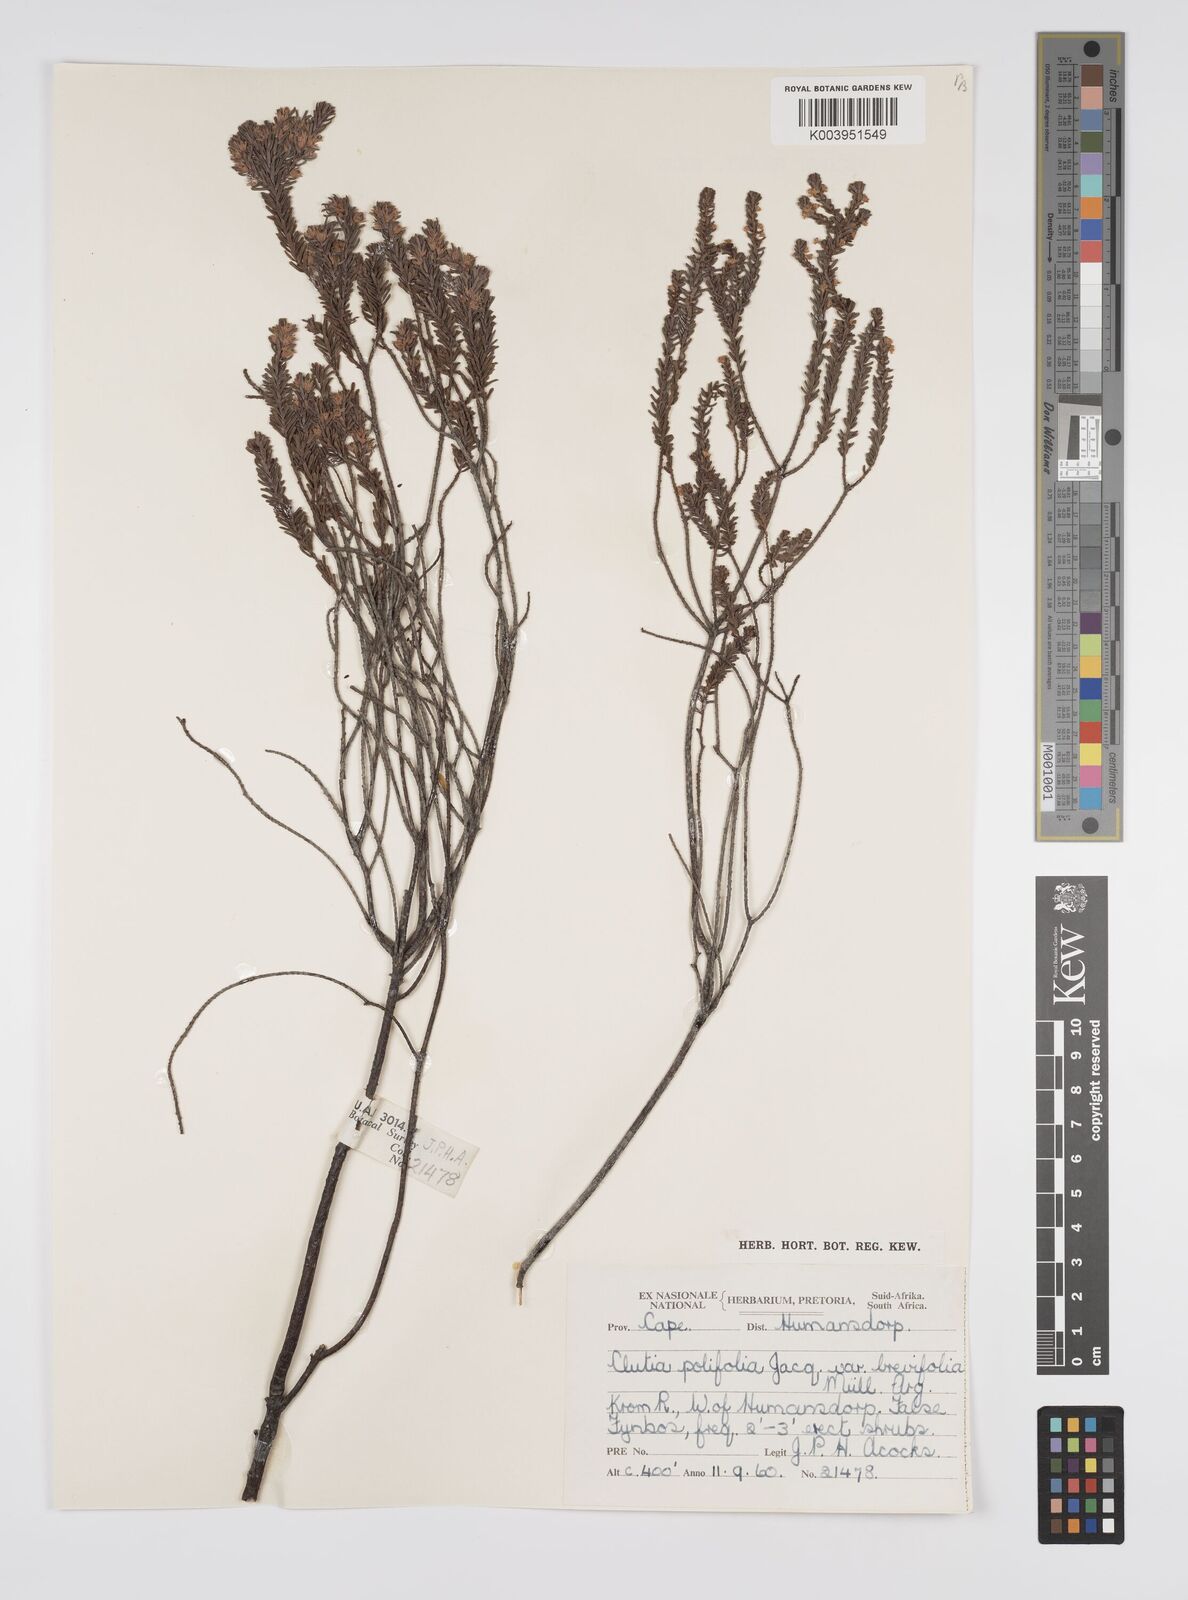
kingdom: Plantae
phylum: Tracheophyta
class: Magnoliopsida
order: Malpighiales
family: Peraceae
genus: Clutia
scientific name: Clutia
